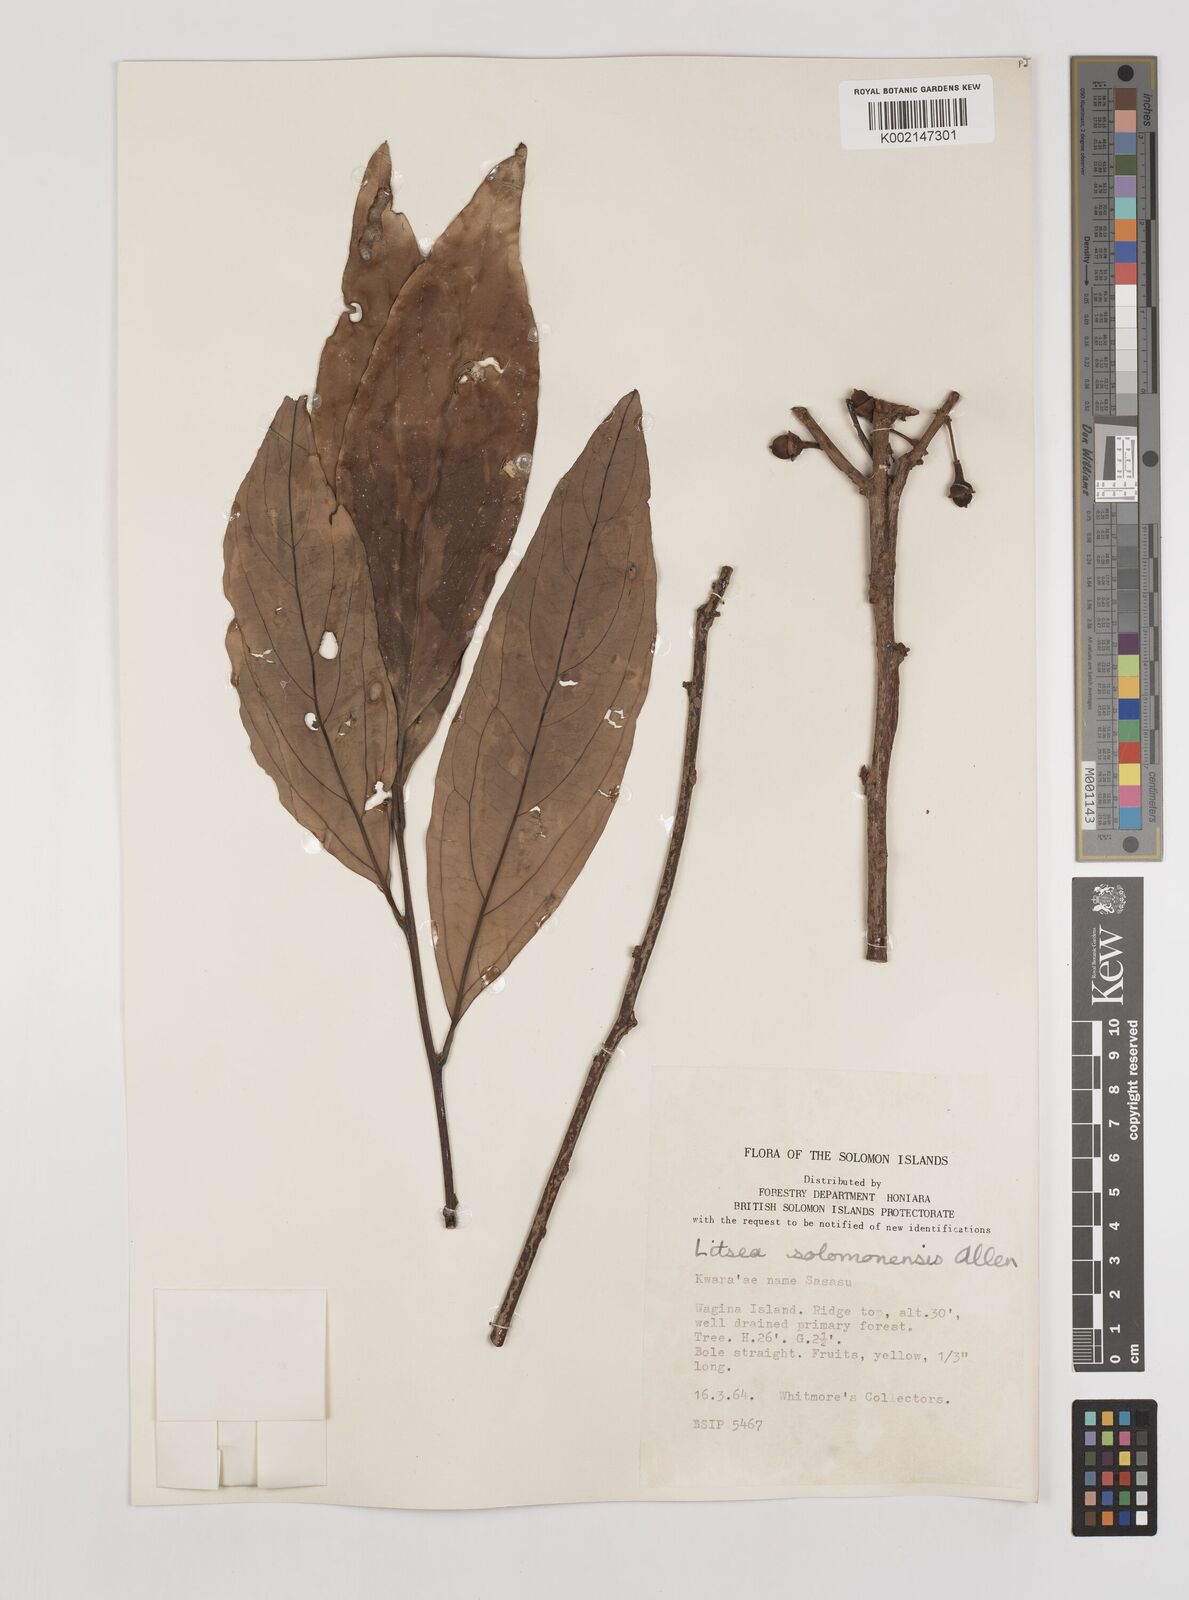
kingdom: Plantae
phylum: Tracheophyta
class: Magnoliopsida
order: Laurales
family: Lauraceae
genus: Litsea
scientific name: Litsea timoriana
